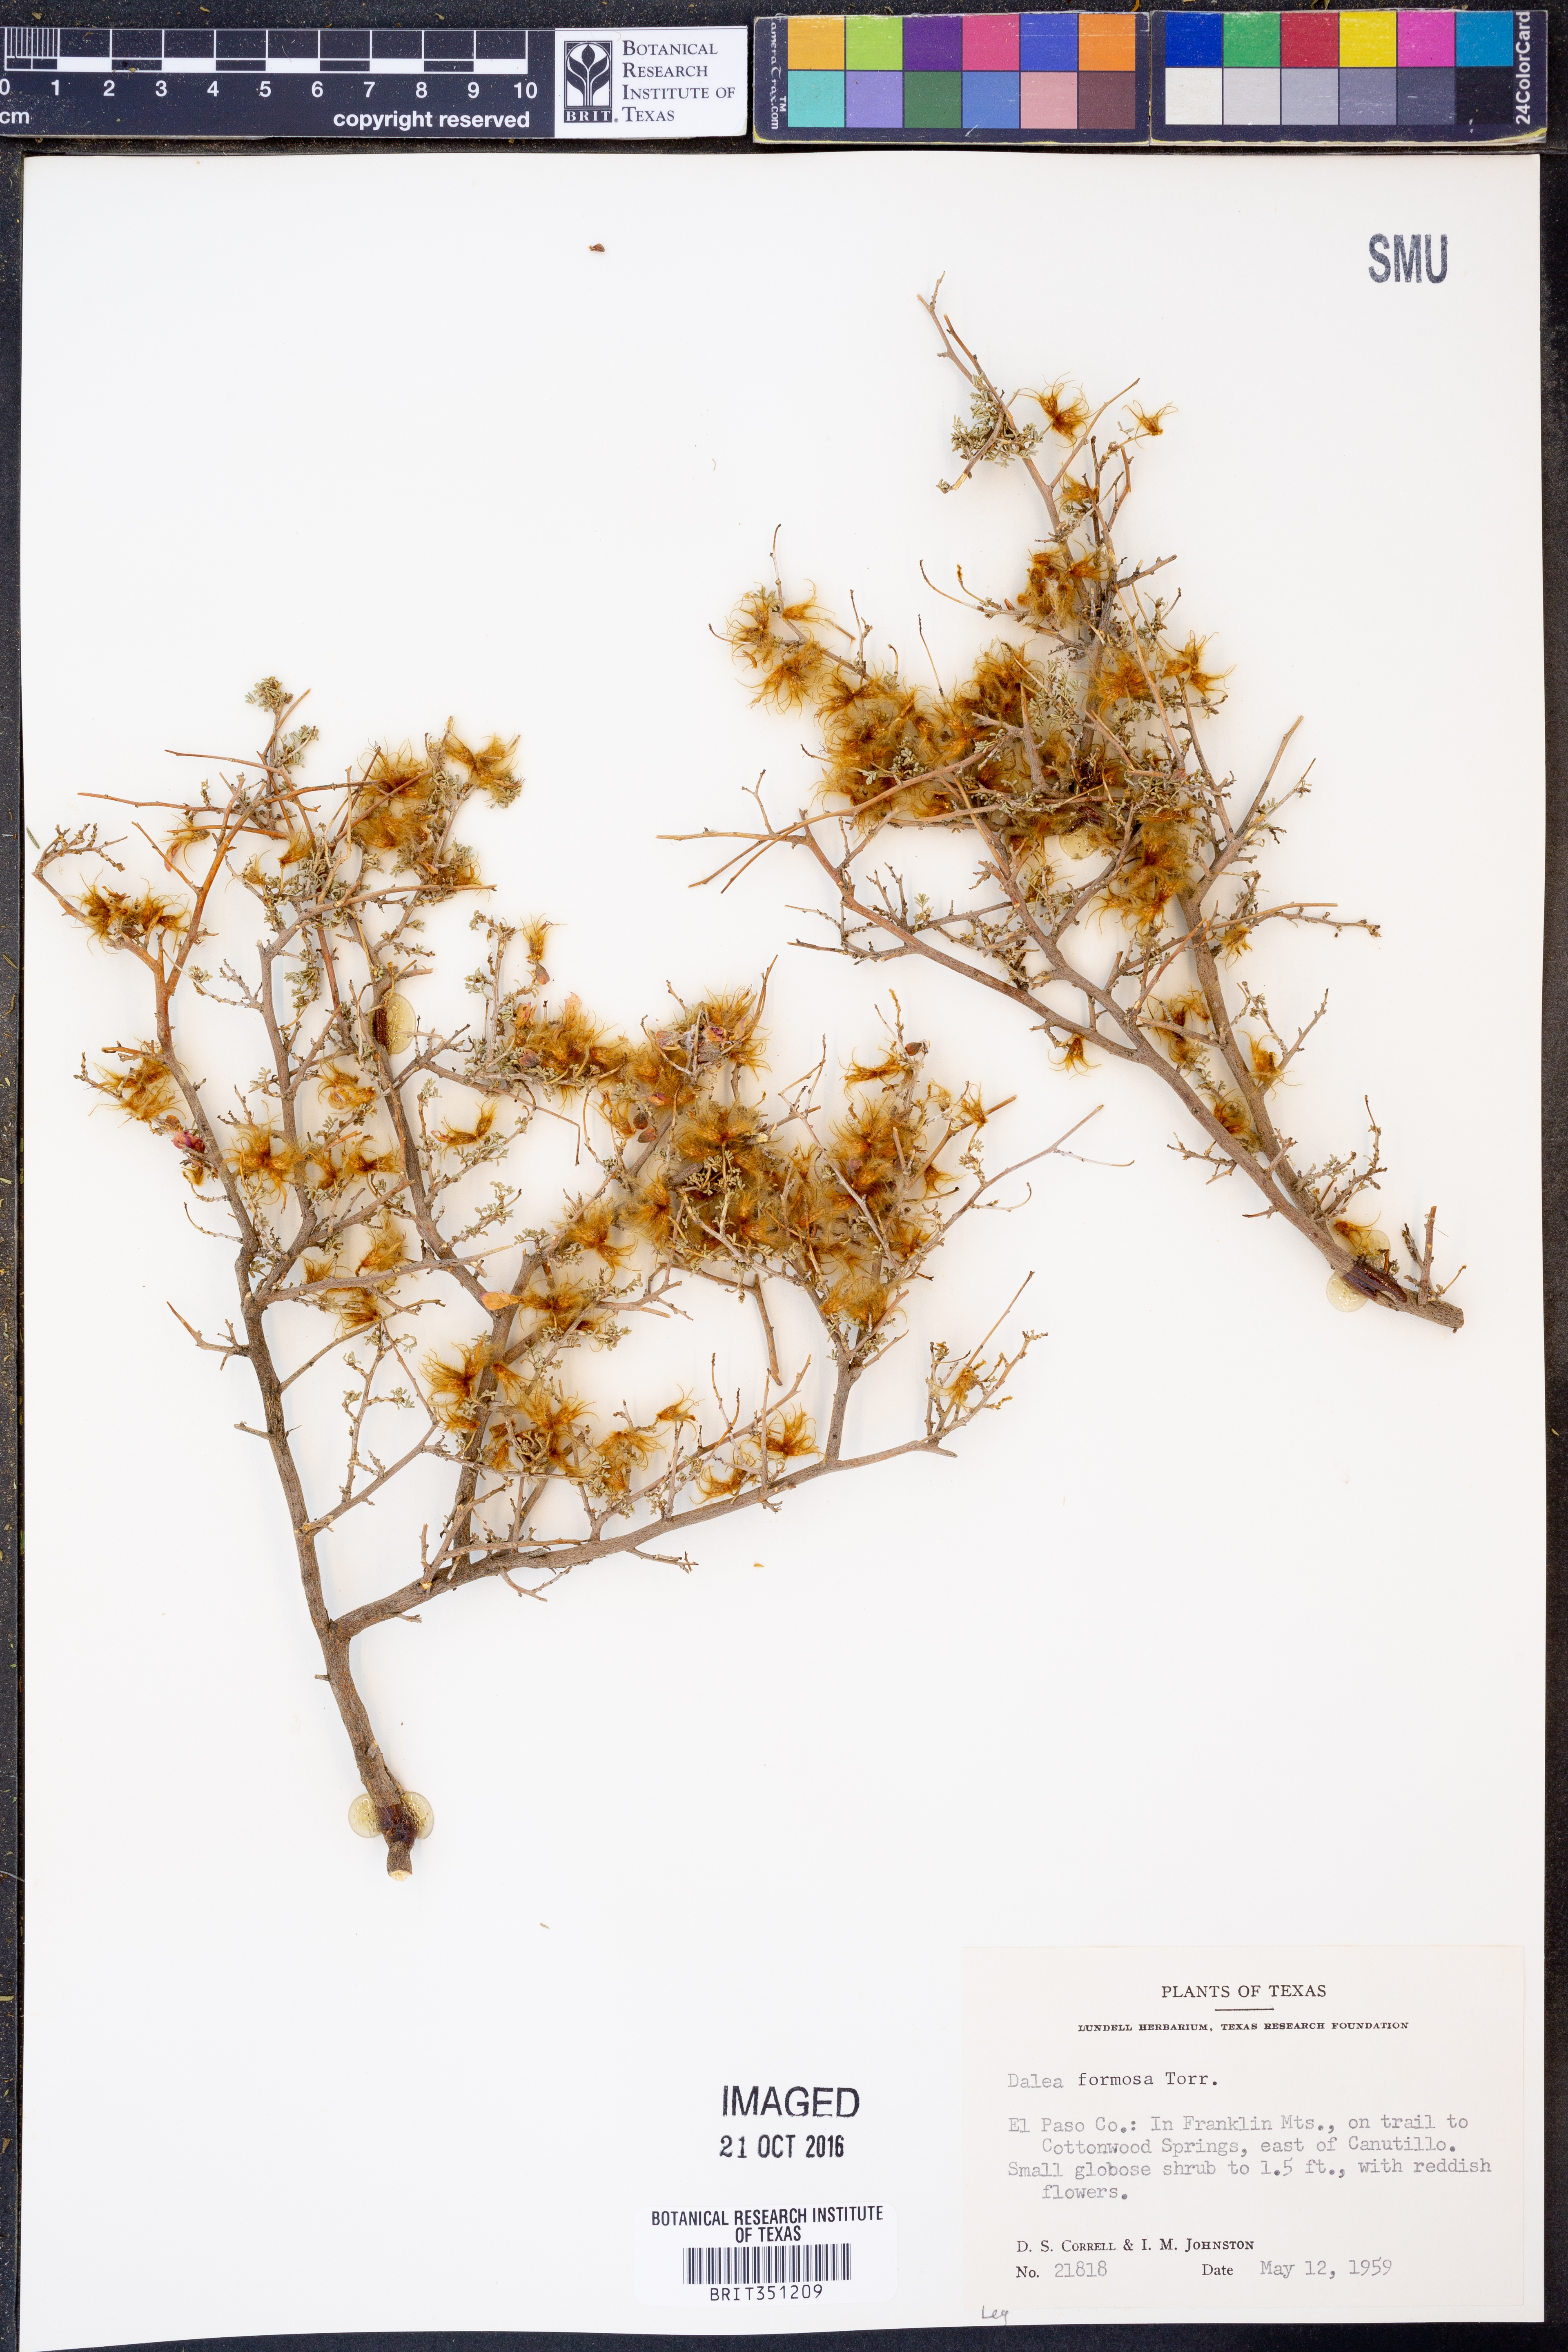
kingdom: Plantae
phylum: Tracheophyta
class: Magnoliopsida
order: Fabales
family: Fabaceae
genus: Dalea
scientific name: Dalea formosa
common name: Feather-plume dalea
